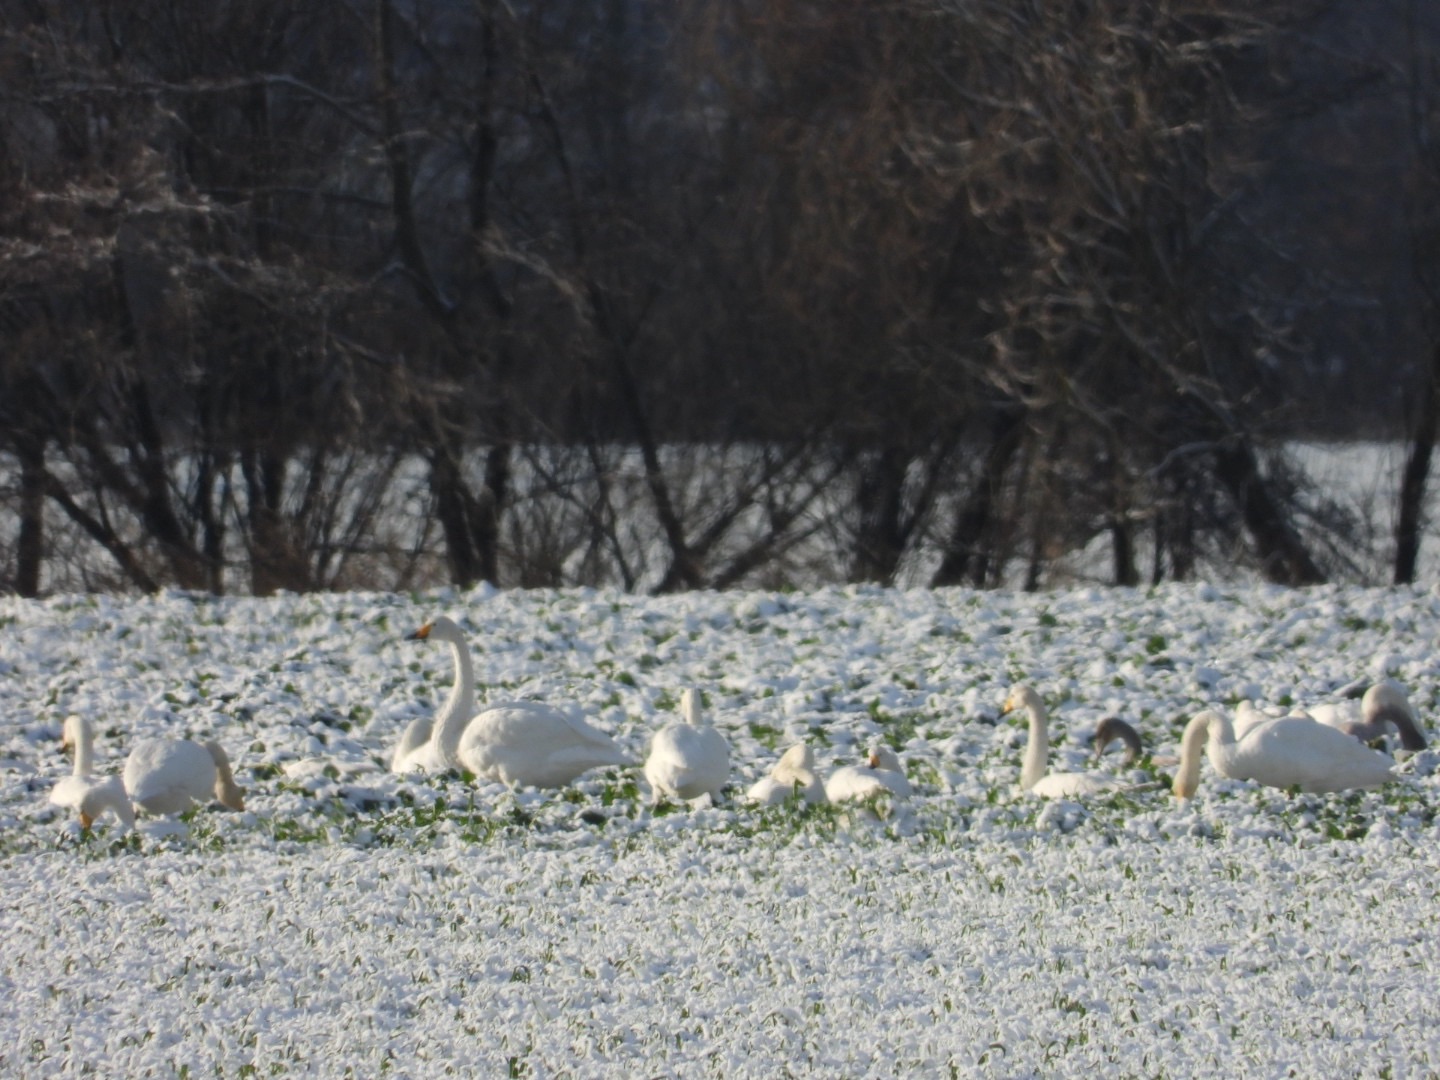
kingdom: Animalia
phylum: Chordata
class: Aves
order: Anseriformes
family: Anatidae
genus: Cygnus
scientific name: Cygnus cygnus
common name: Sangsvane
